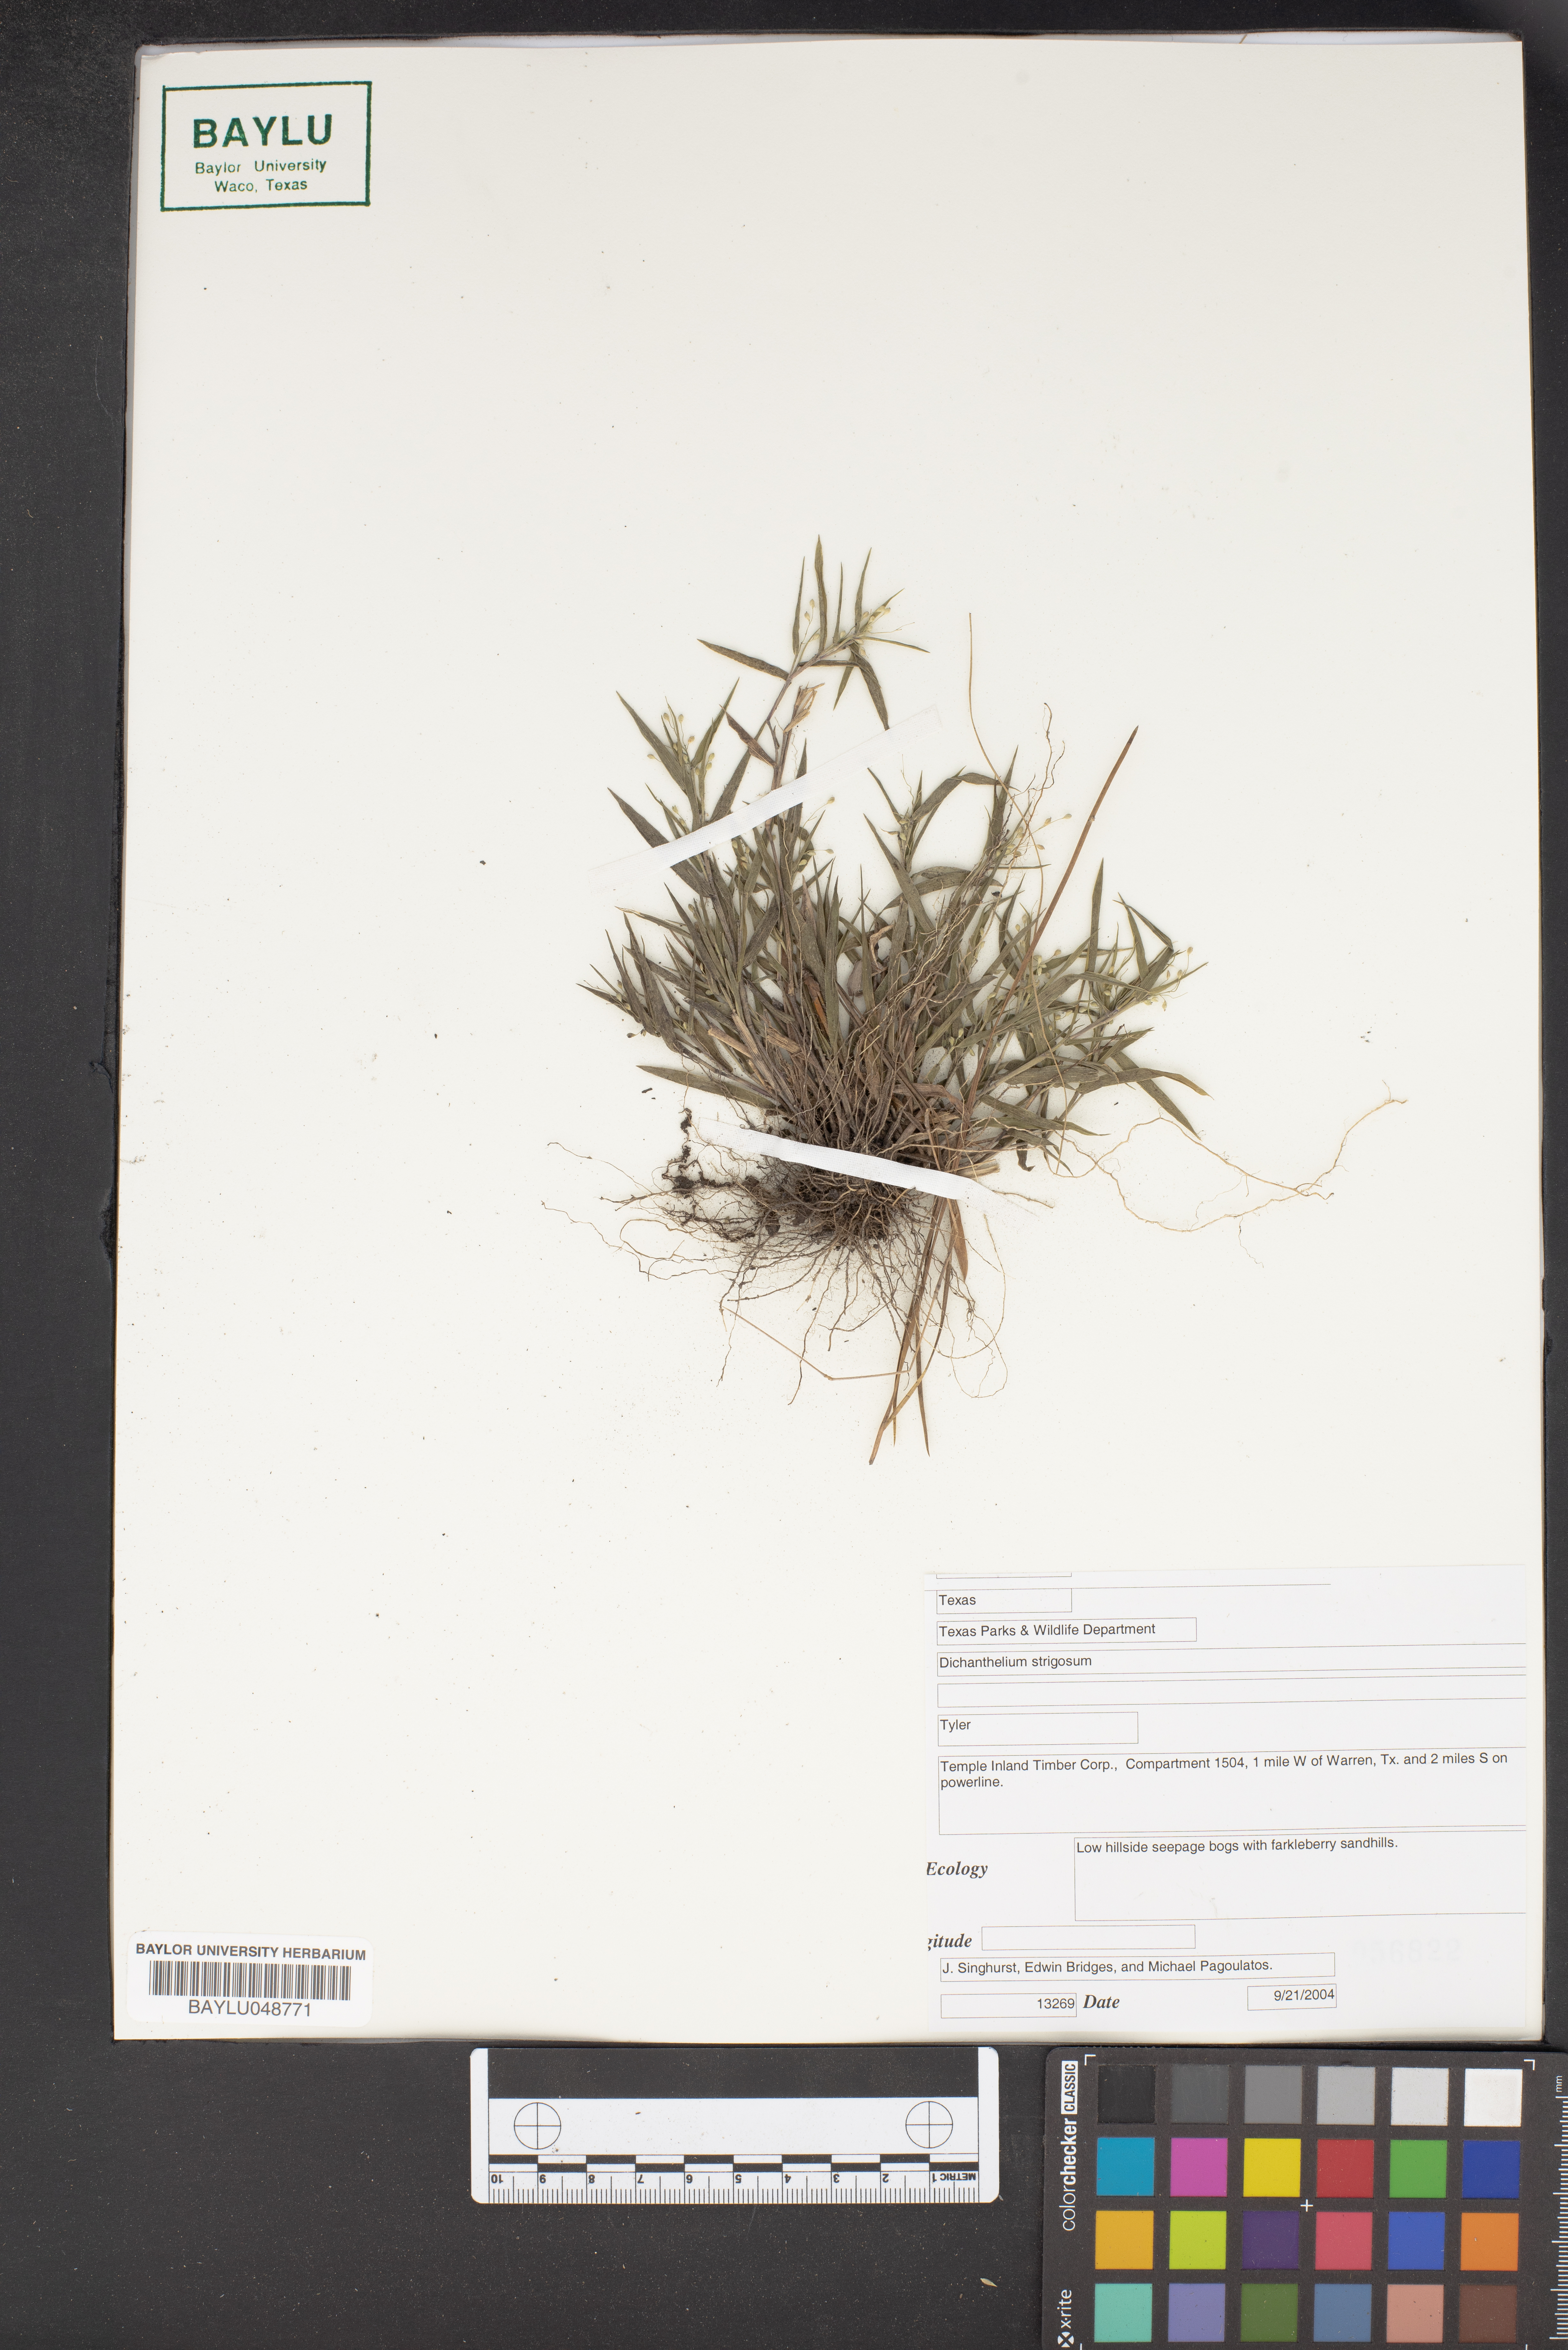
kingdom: Plantae
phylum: Tracheophyta
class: Liliopsida
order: Poales
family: Poaceae
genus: Dichanthelium
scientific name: Dichanthelium strigosum
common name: Cushion-tuft panic grass
